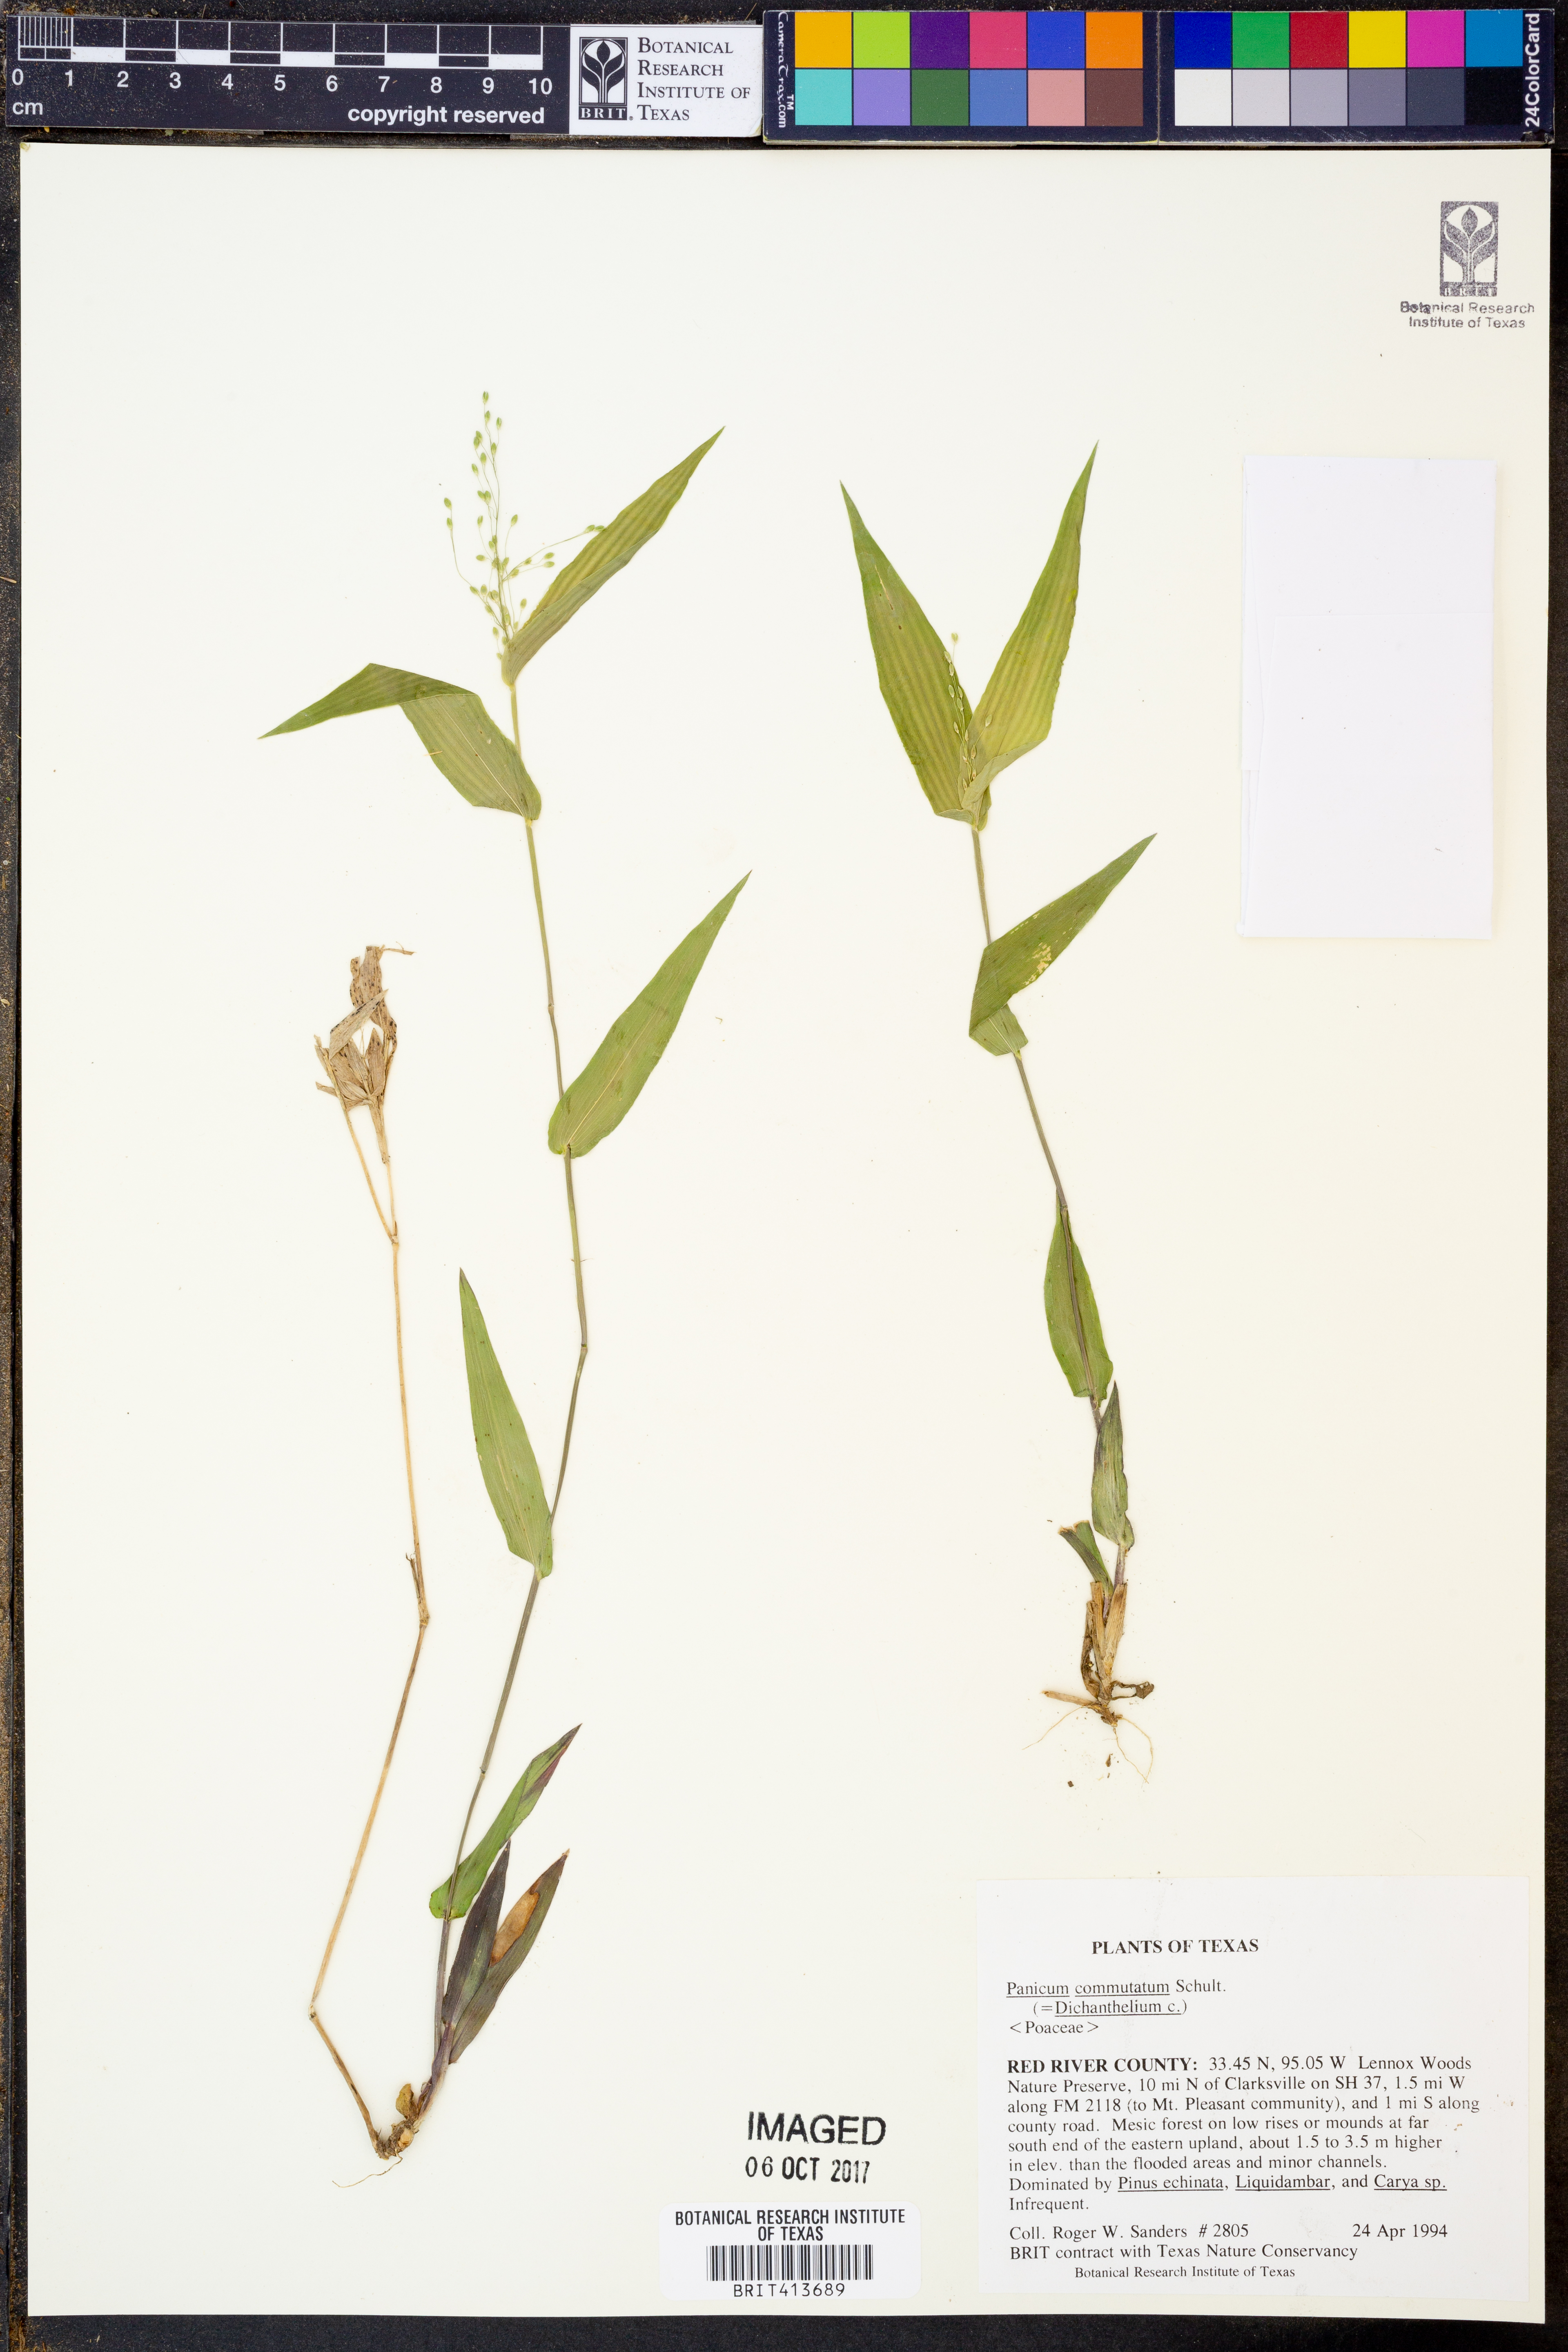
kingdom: Plantae
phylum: Tracheophyta
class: Liliopsida
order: Poales
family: Poaceae
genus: Dichanthelium
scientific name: Dichanthelium commutatum
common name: Variable witchgrass
